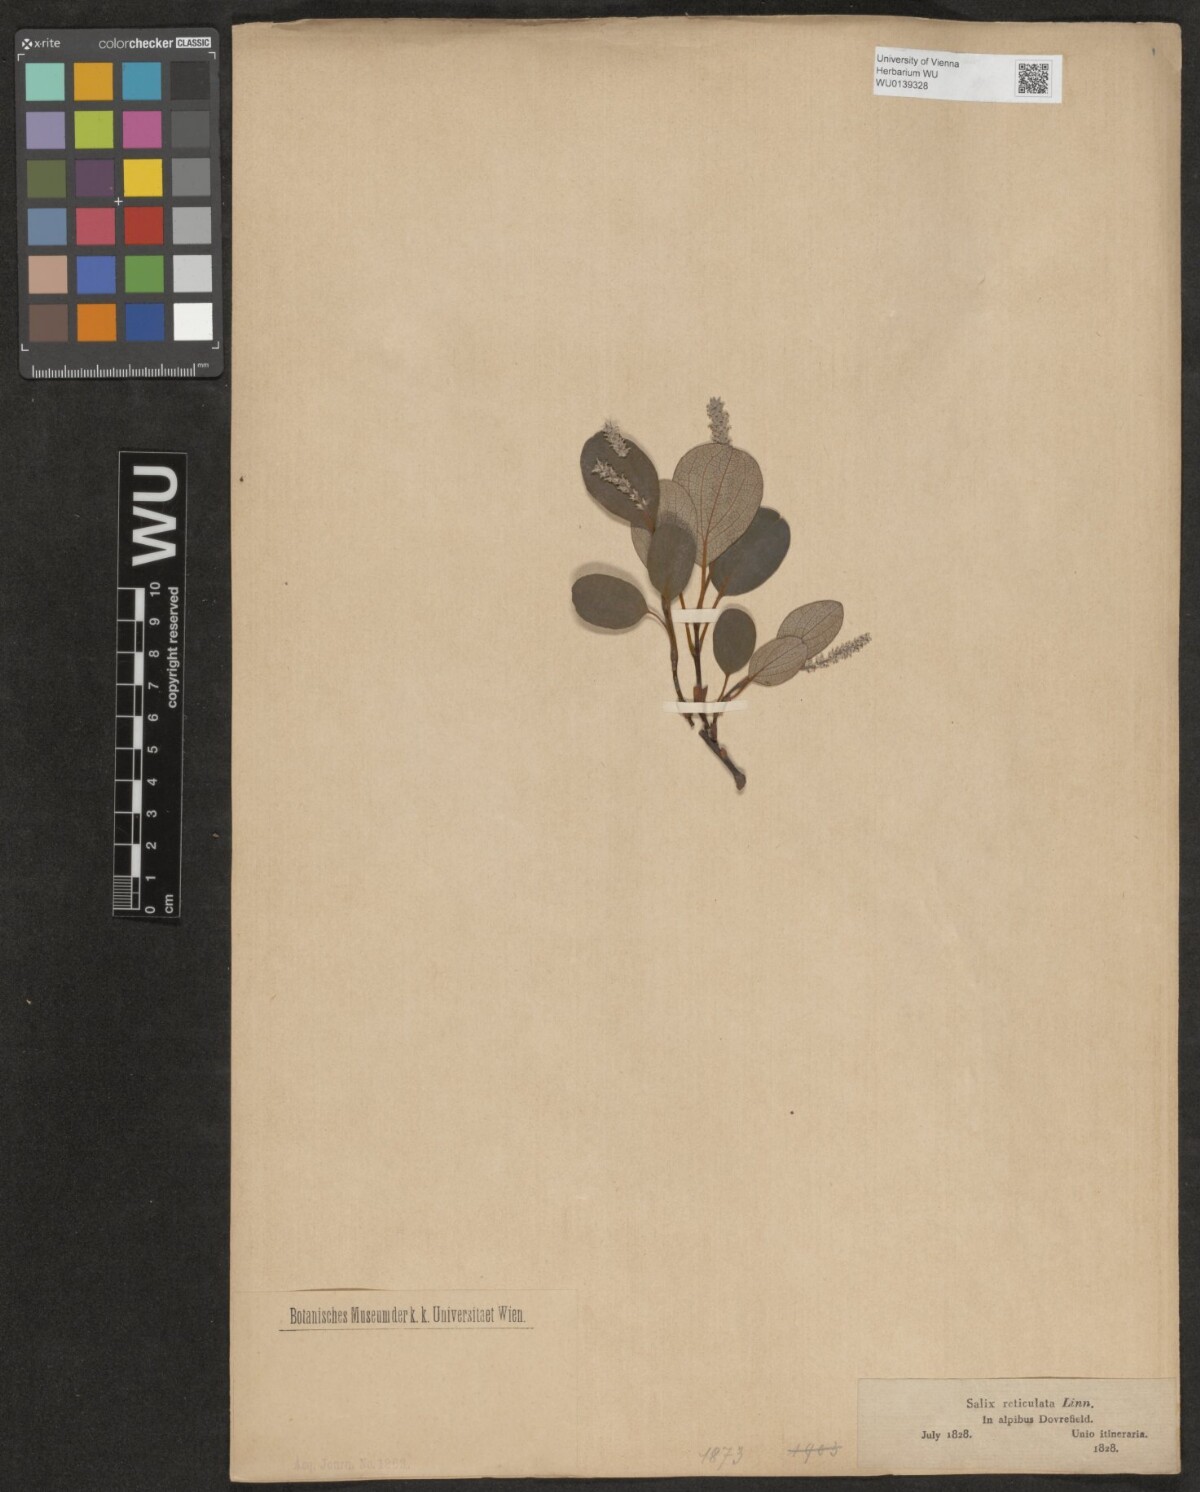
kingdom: Plantae
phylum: Tracheophyta
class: Magnoliopsida
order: Malpighiales
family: Salicaceae
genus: Salix
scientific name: Salix reticulata
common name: Net-leaved willow
